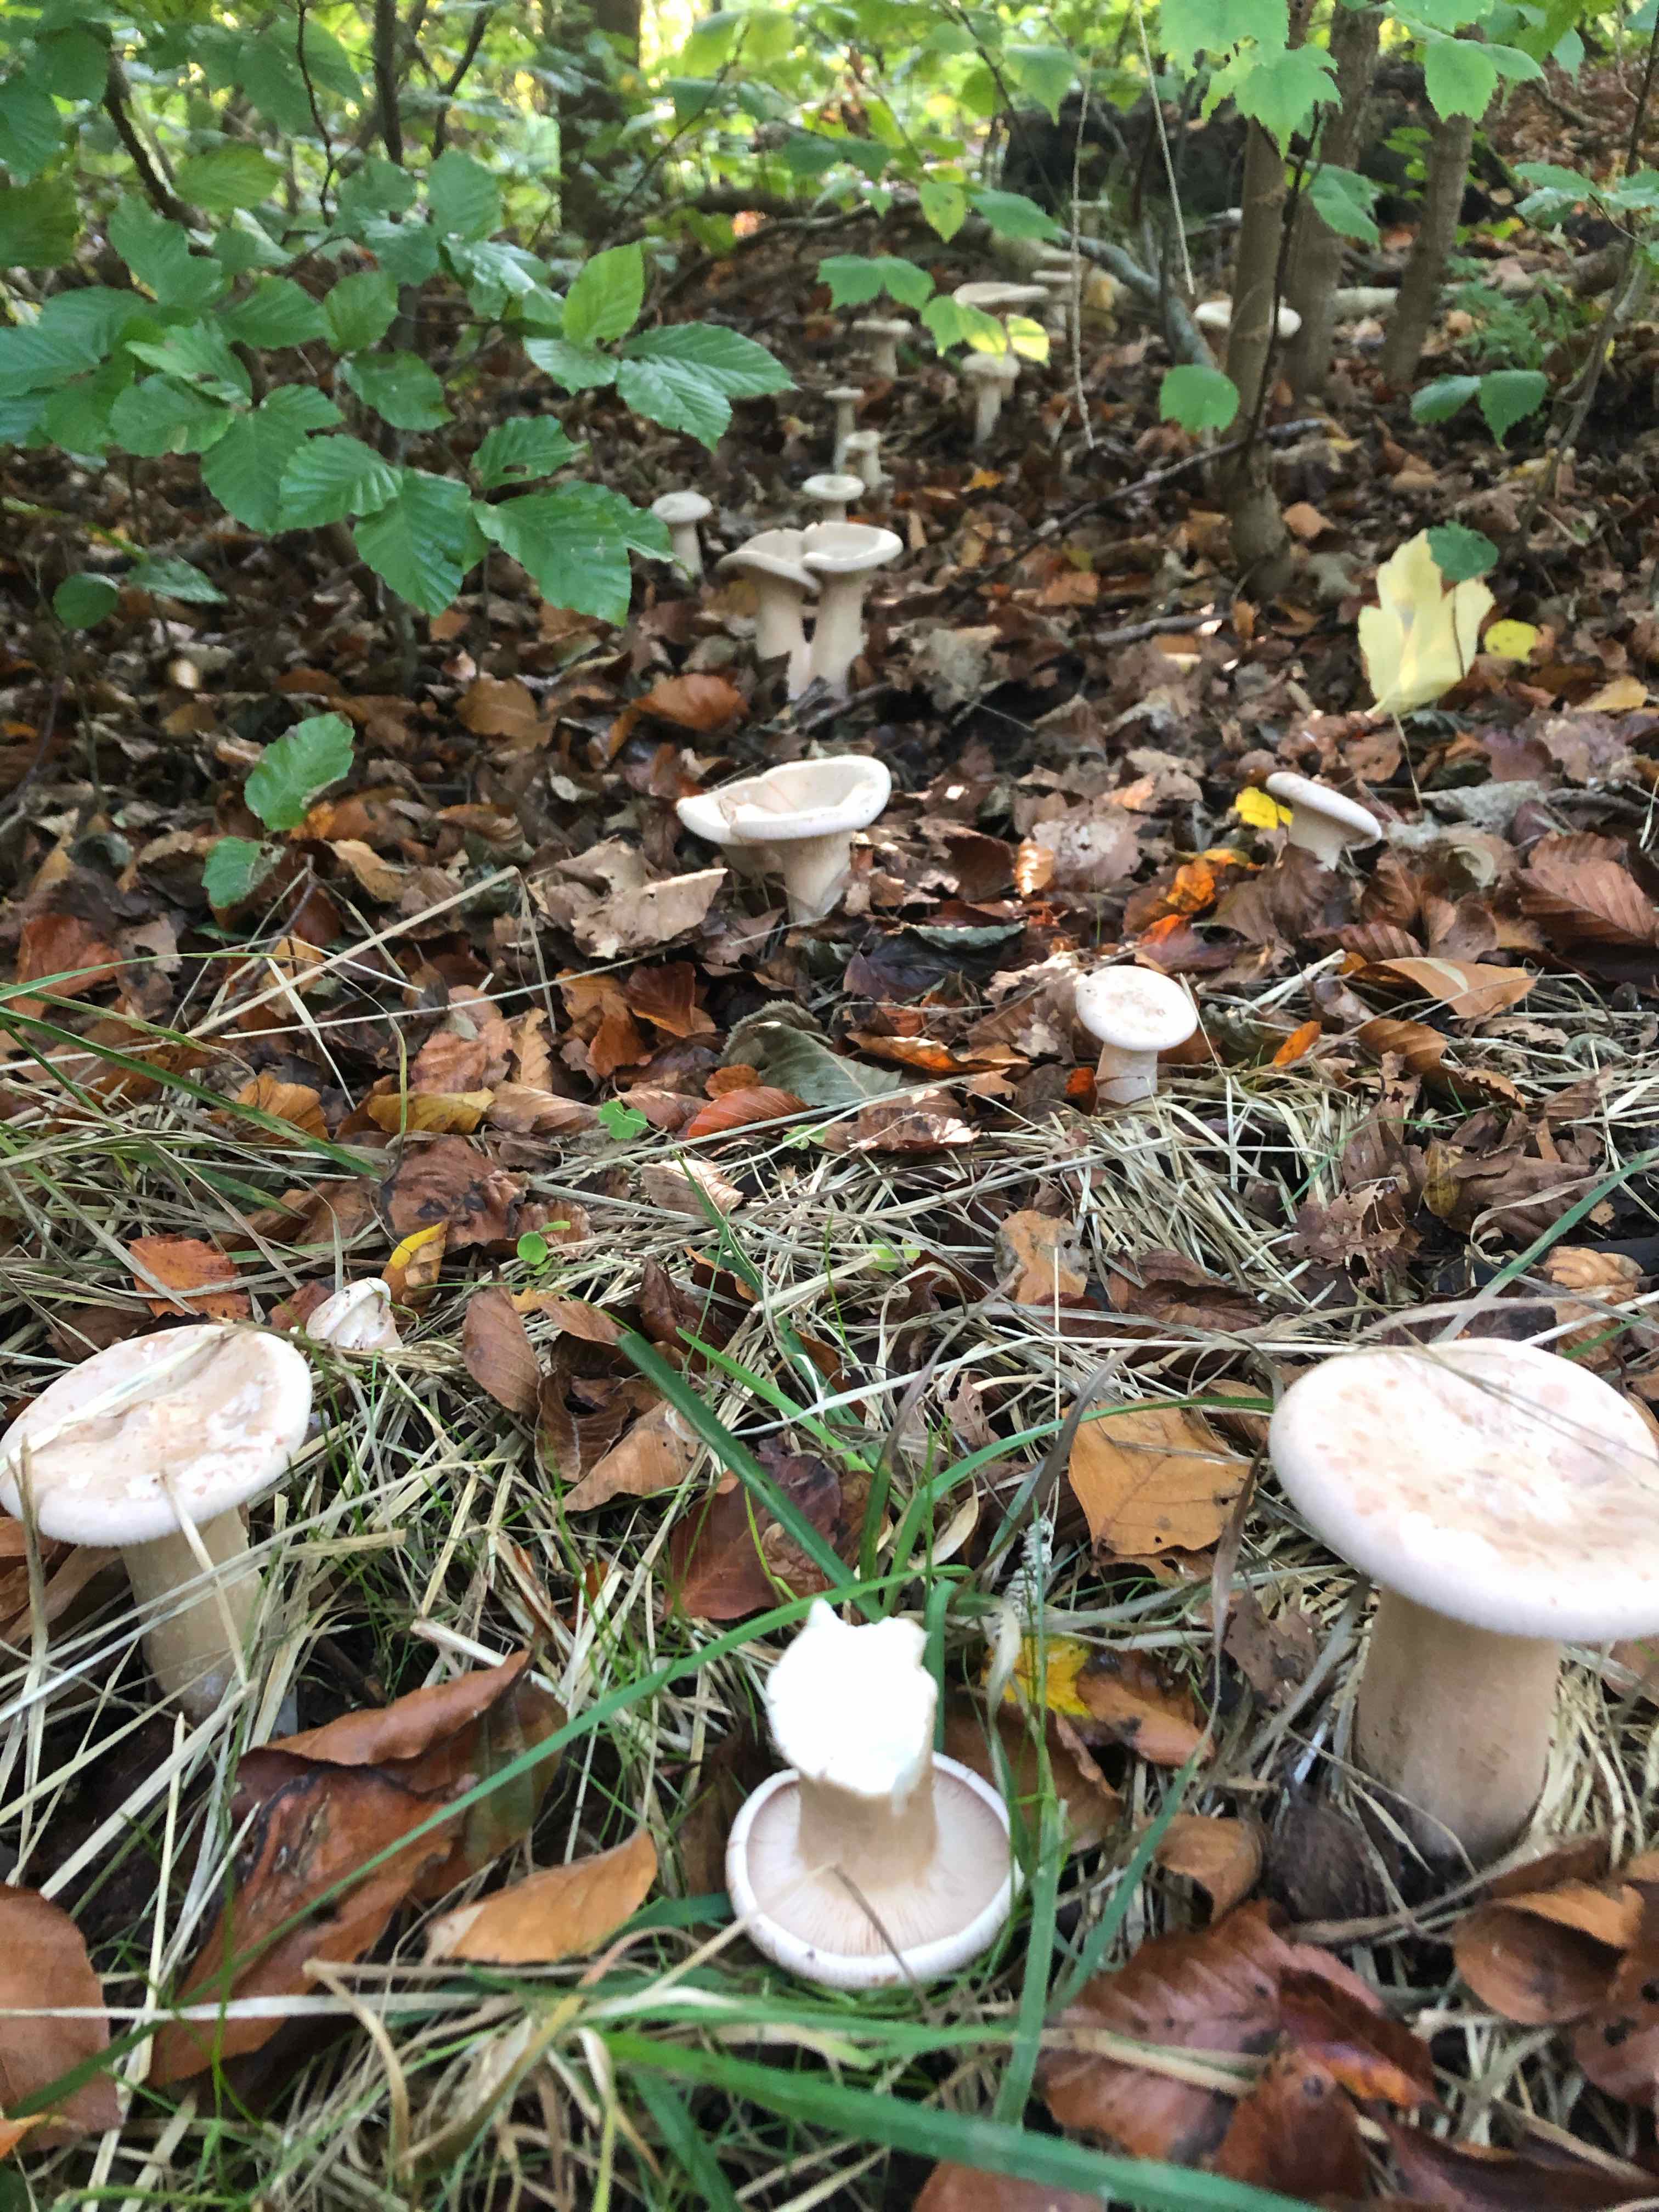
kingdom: Fungi
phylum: Basidiomycota
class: Agaricomycetes
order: Agaricales
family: Tricholomataceae
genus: Infundibulicybe
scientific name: Infundibulicybe geotropa
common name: stor tragthat
